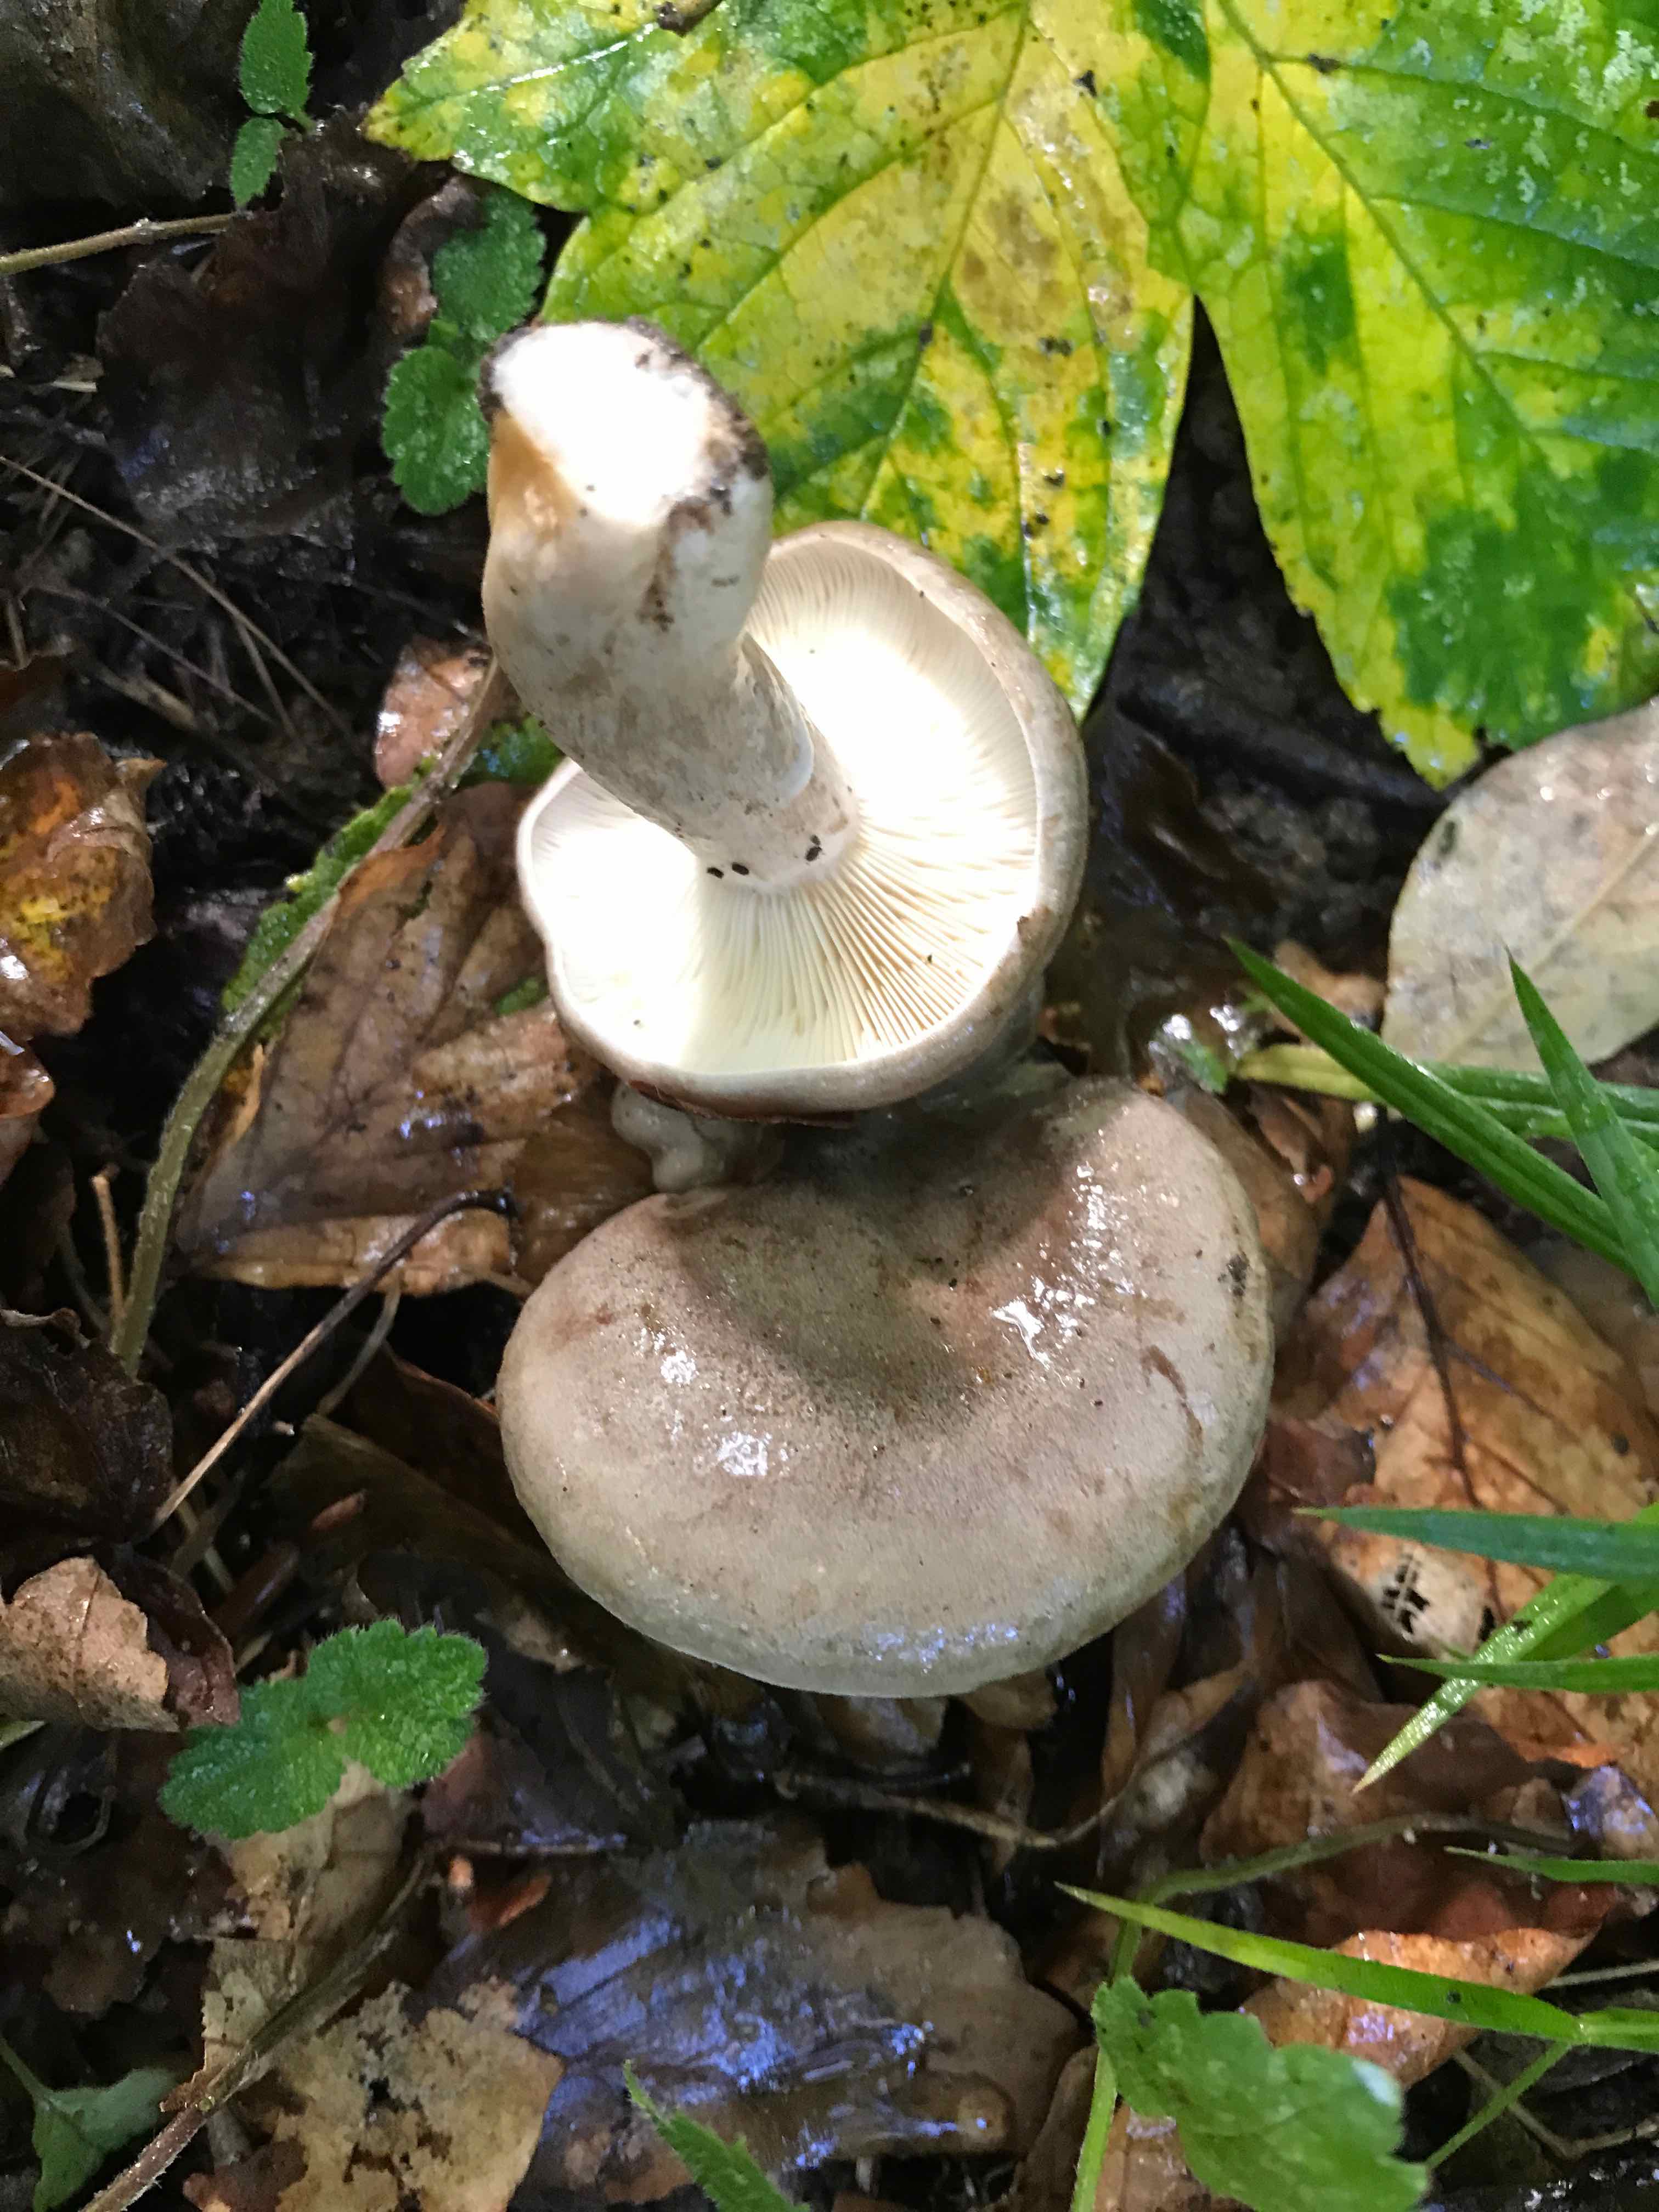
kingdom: Fungi
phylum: Basidiomycota
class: Agaricomycetes
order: Russulales
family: Russulaceae
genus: Lactarius
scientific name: Lactarius blennius
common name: dråbeplettet mælkehat
